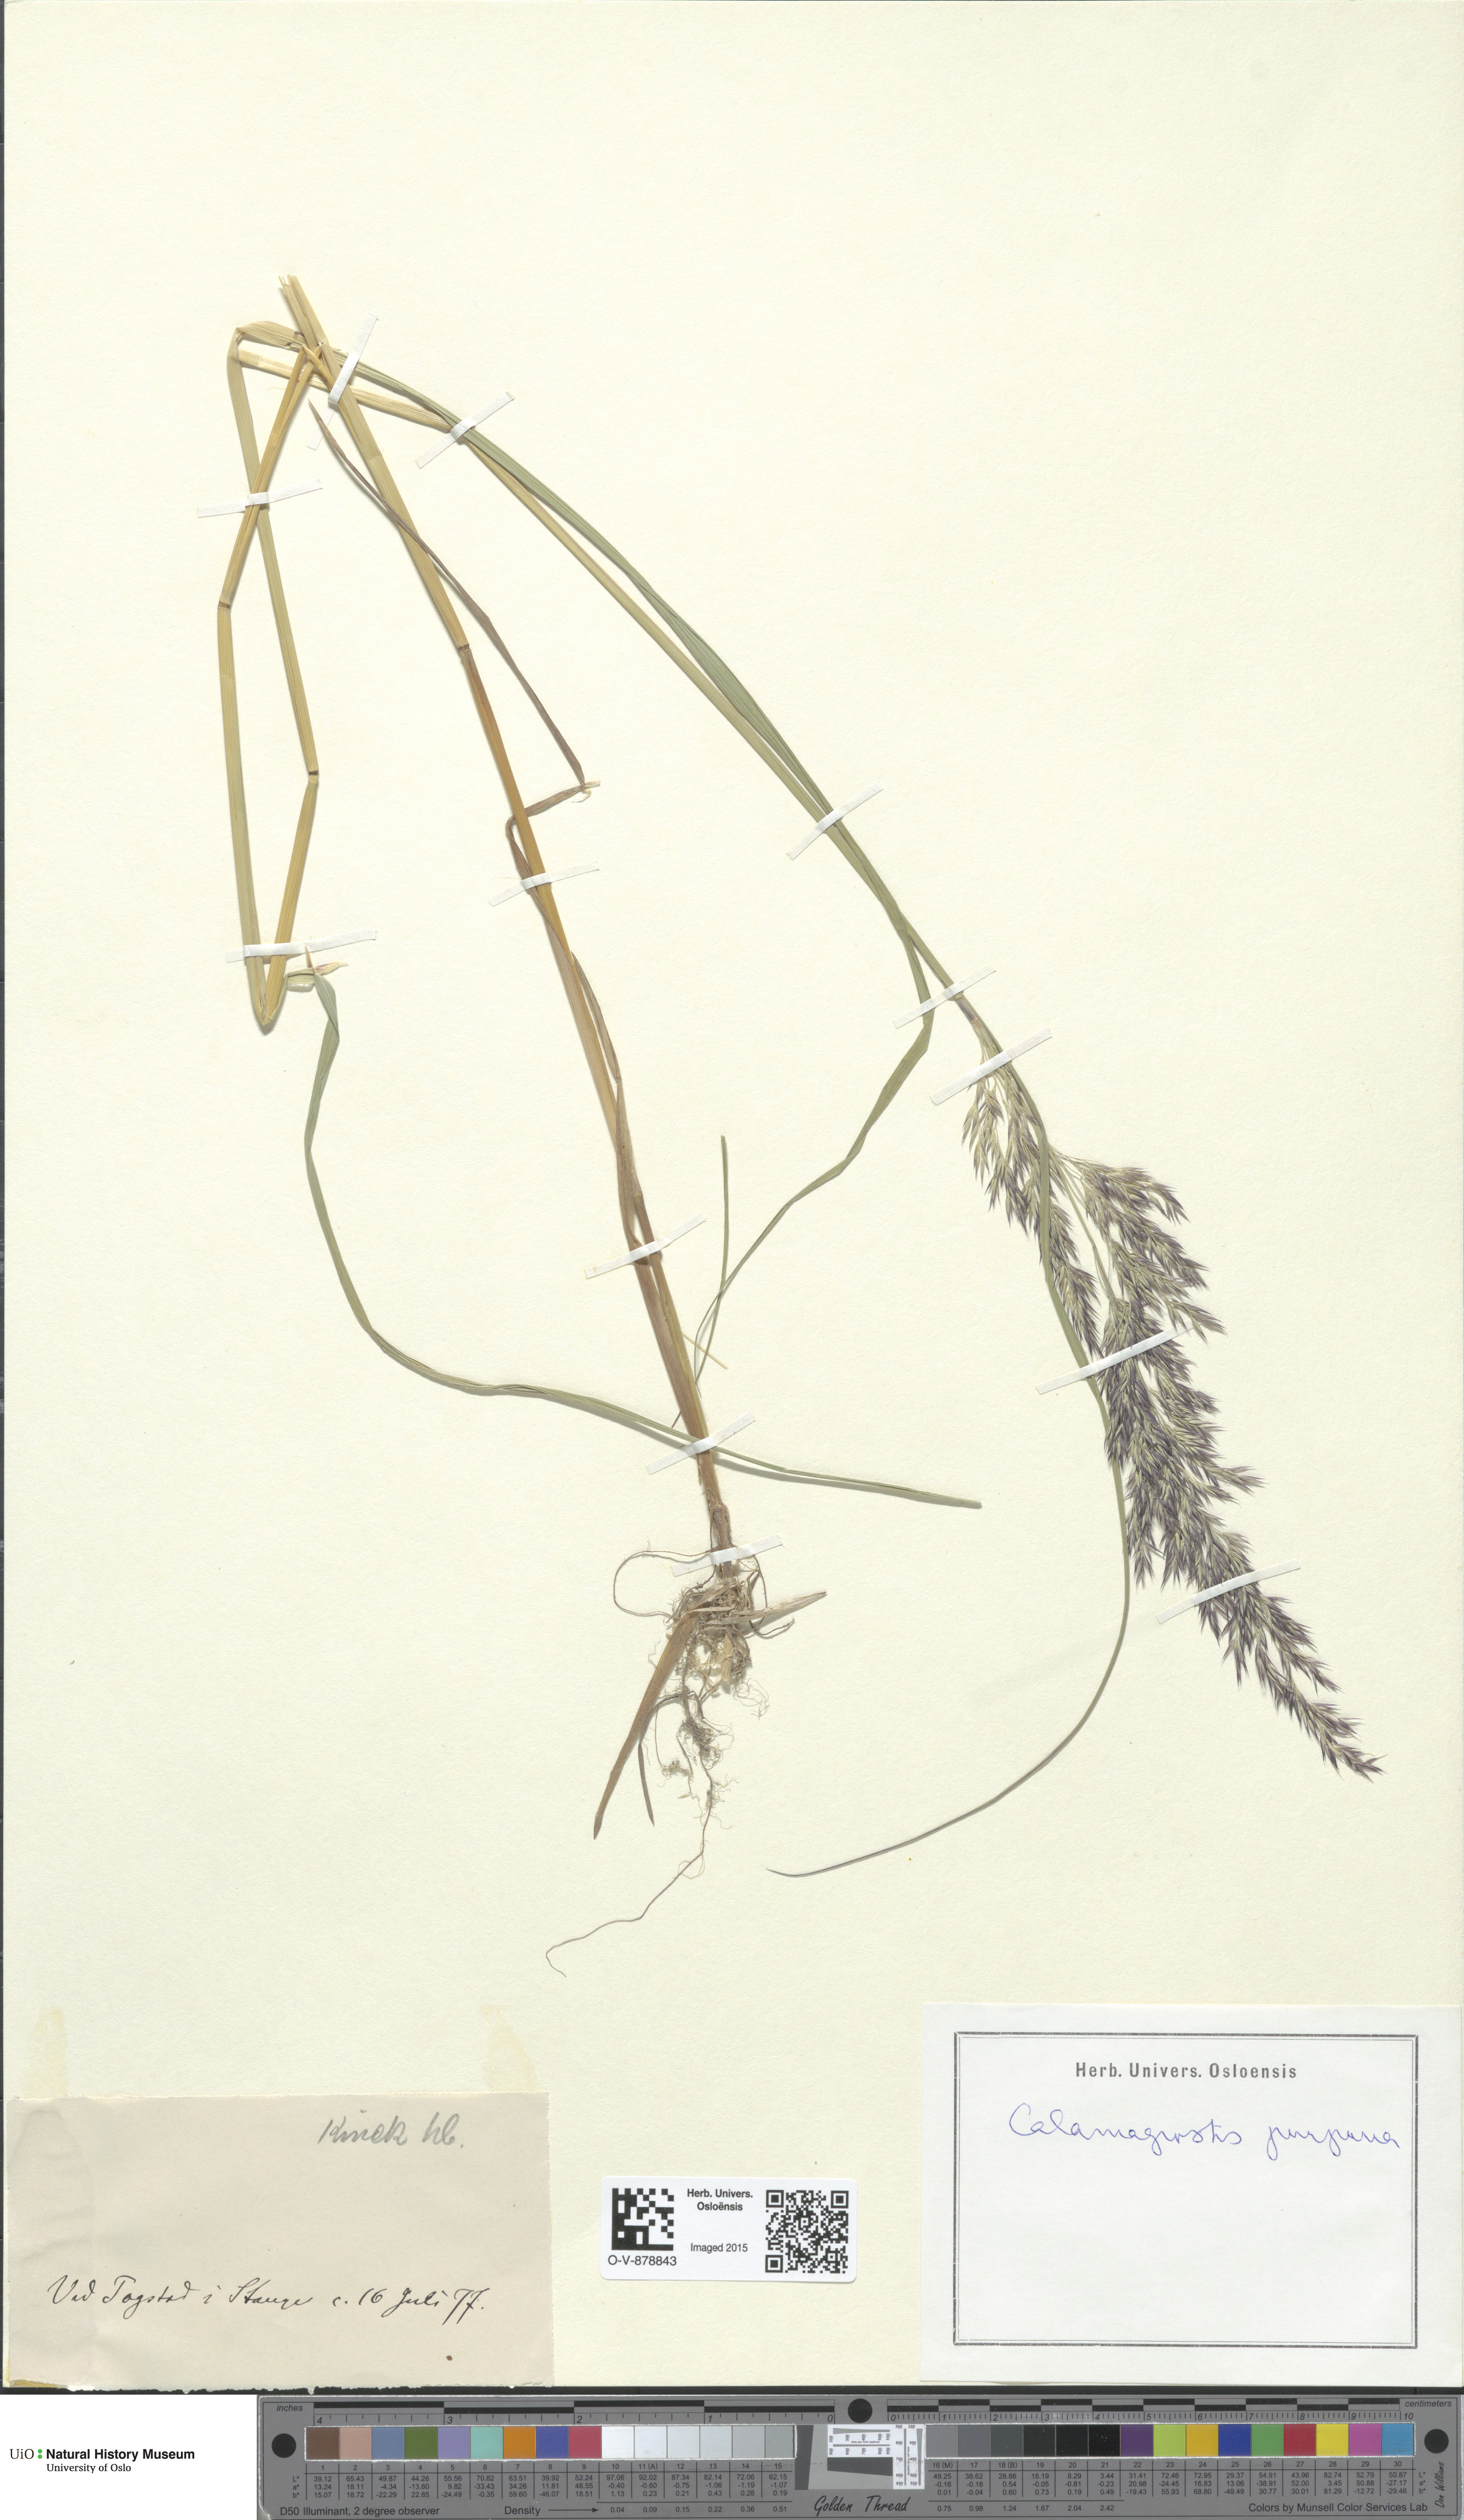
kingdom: Plantae
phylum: Tracheophyta
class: Liliopsida
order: Poales
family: Poaceae
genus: Calamagrostis
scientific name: Calamagrostis purpurea
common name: Scandinavian small-reed
